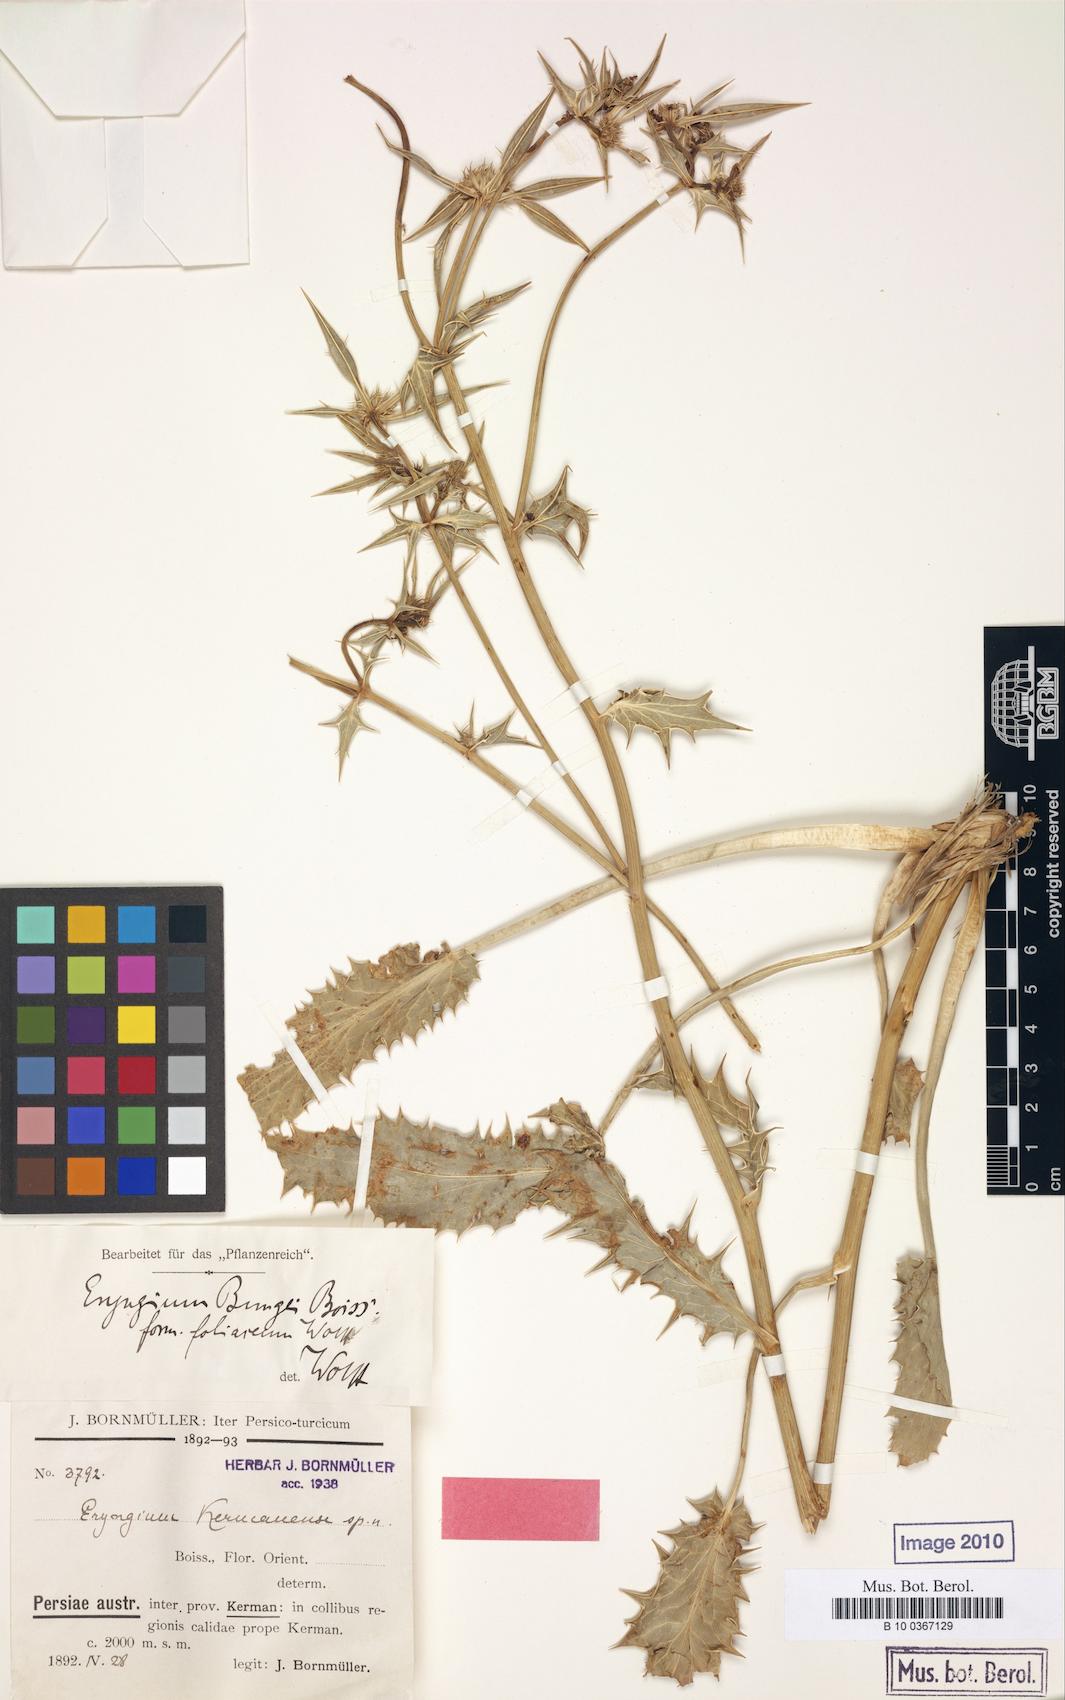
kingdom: Plantae
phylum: Tracheophyta
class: Magnoliopsida
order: Apiales
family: Apiaceae
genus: Eryngium
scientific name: Eryngium bungei
